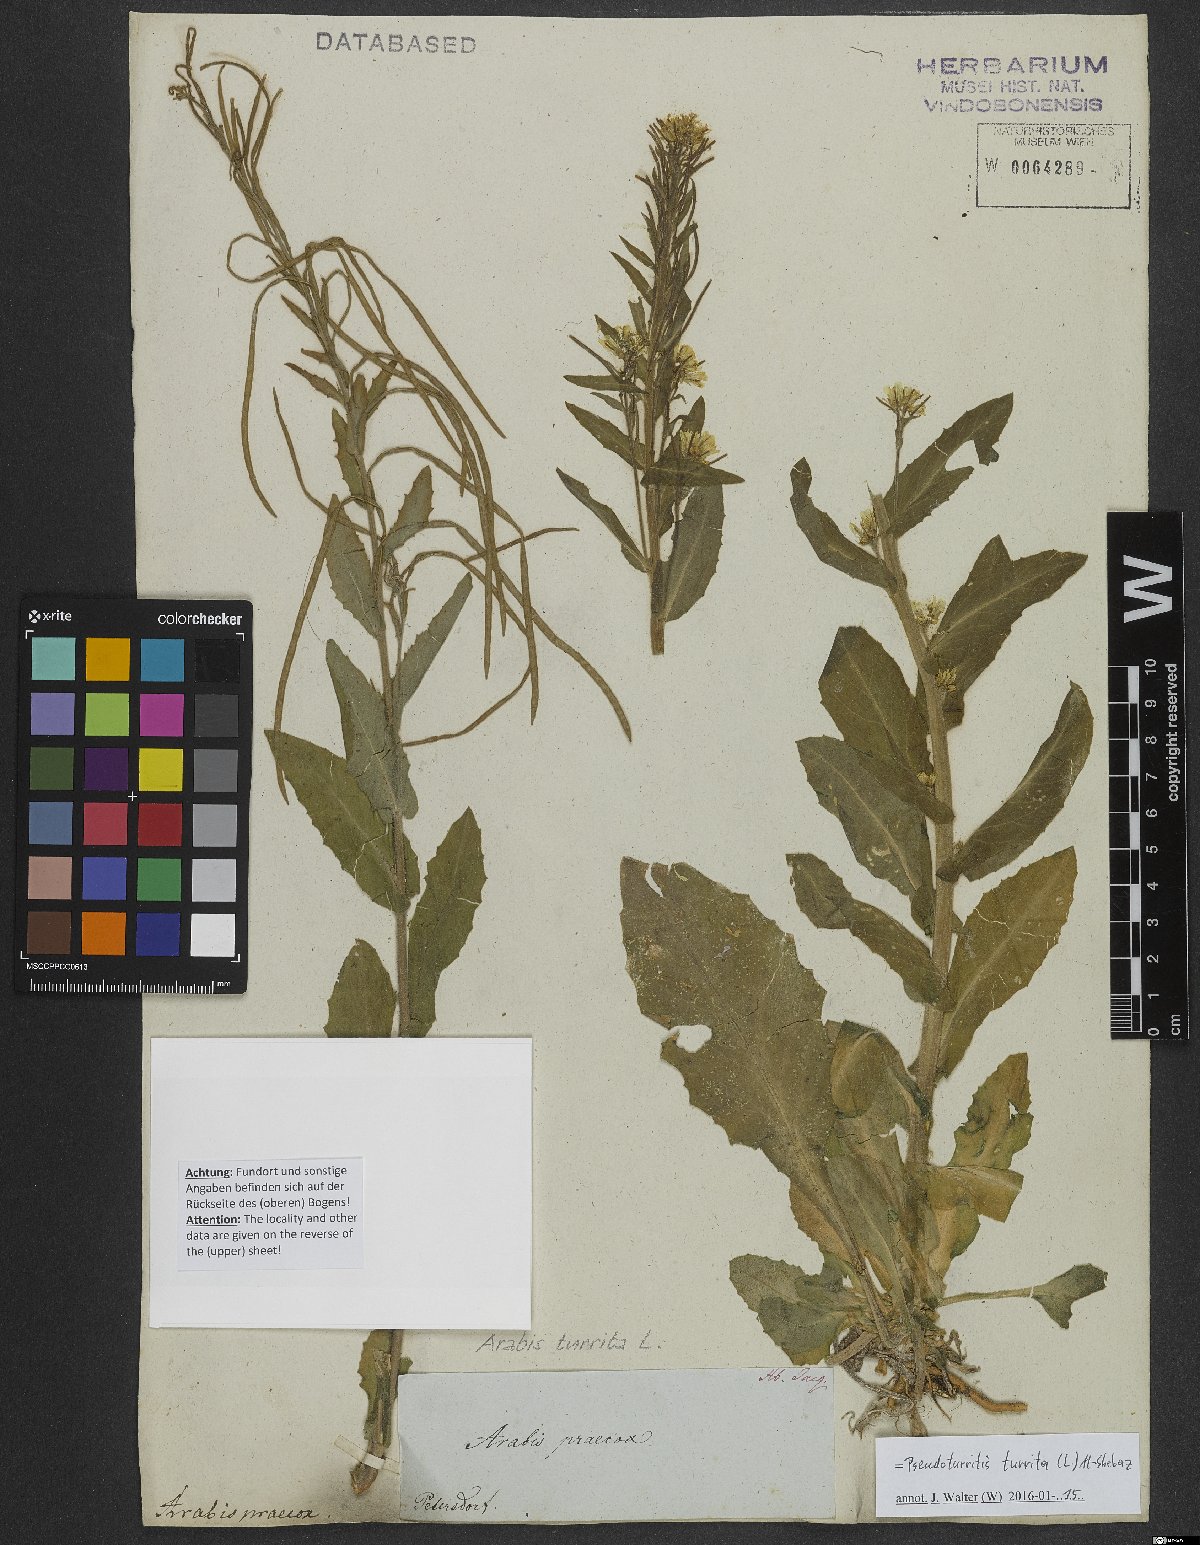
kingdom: Plantae
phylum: Tracheophyta
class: Magnoliopsida
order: Brassicales
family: Brassicaceae
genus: Pseudoturritis
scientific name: Pseudoturritis turrita
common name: Tower cress
